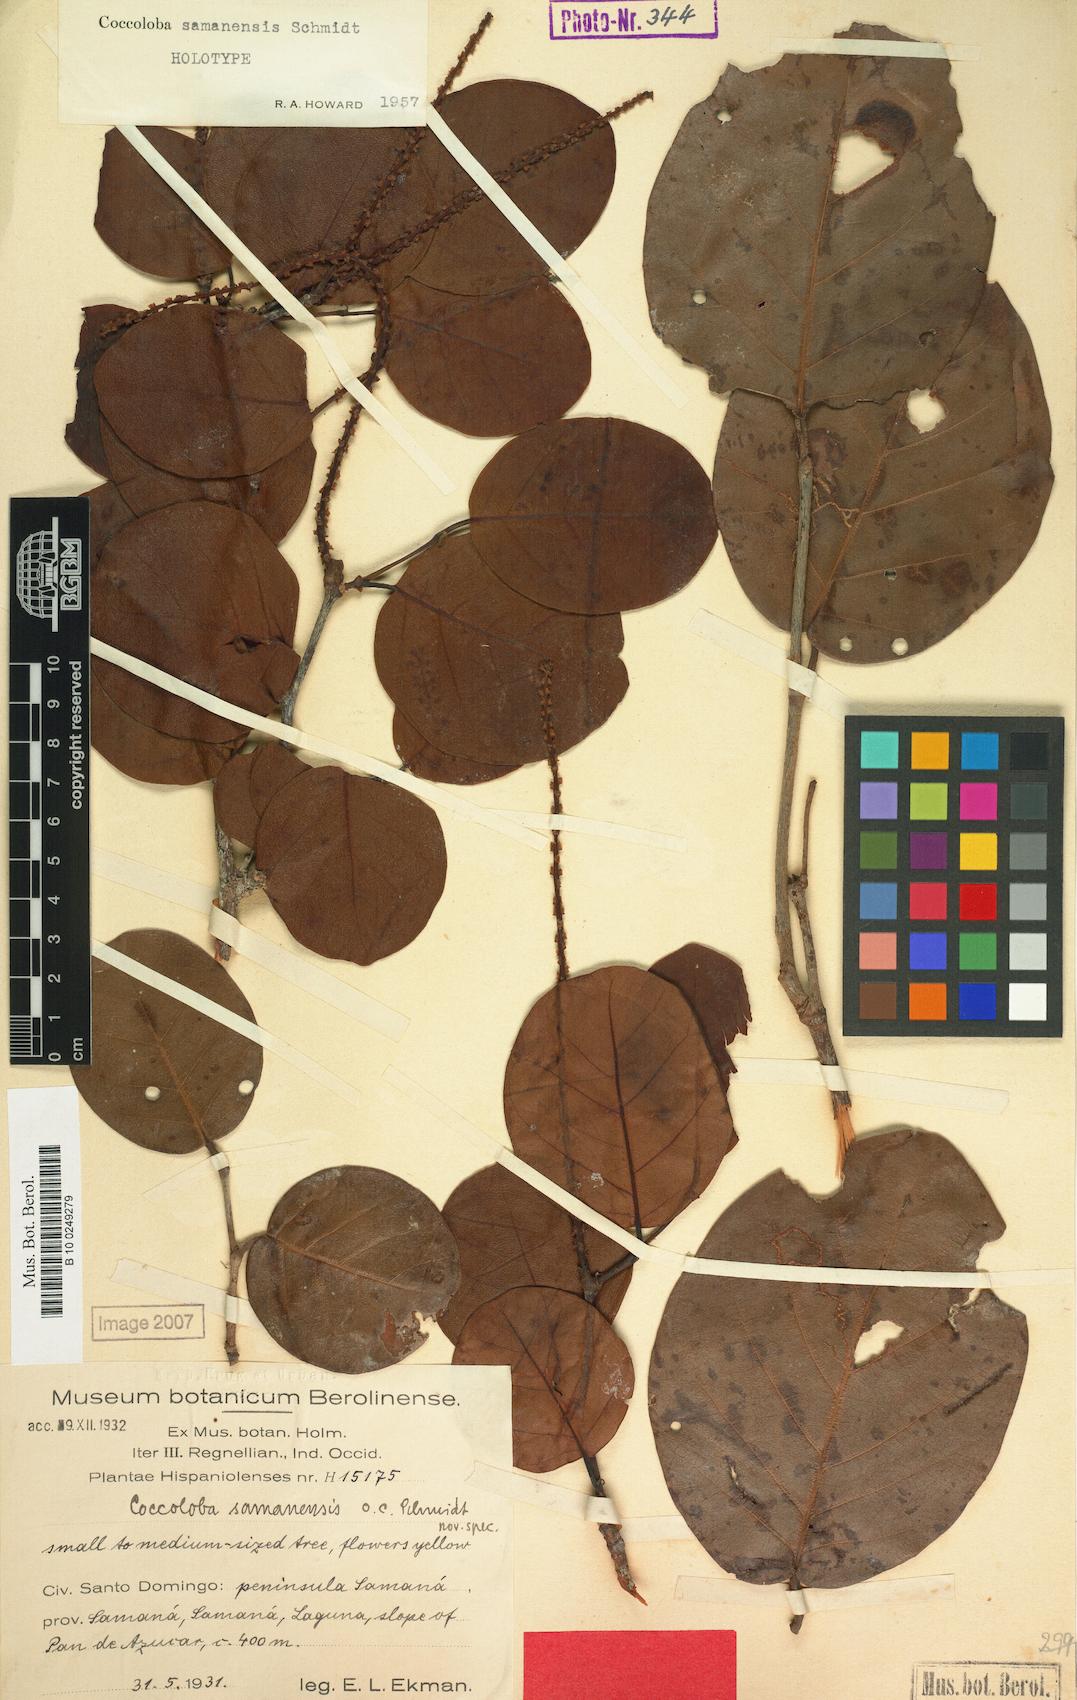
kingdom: Plantae
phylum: Tracheophyta
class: Magnoliopsida
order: Caryophyllales
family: Polygonaceae
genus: Coccoloba
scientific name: Coccoloba samanensis
